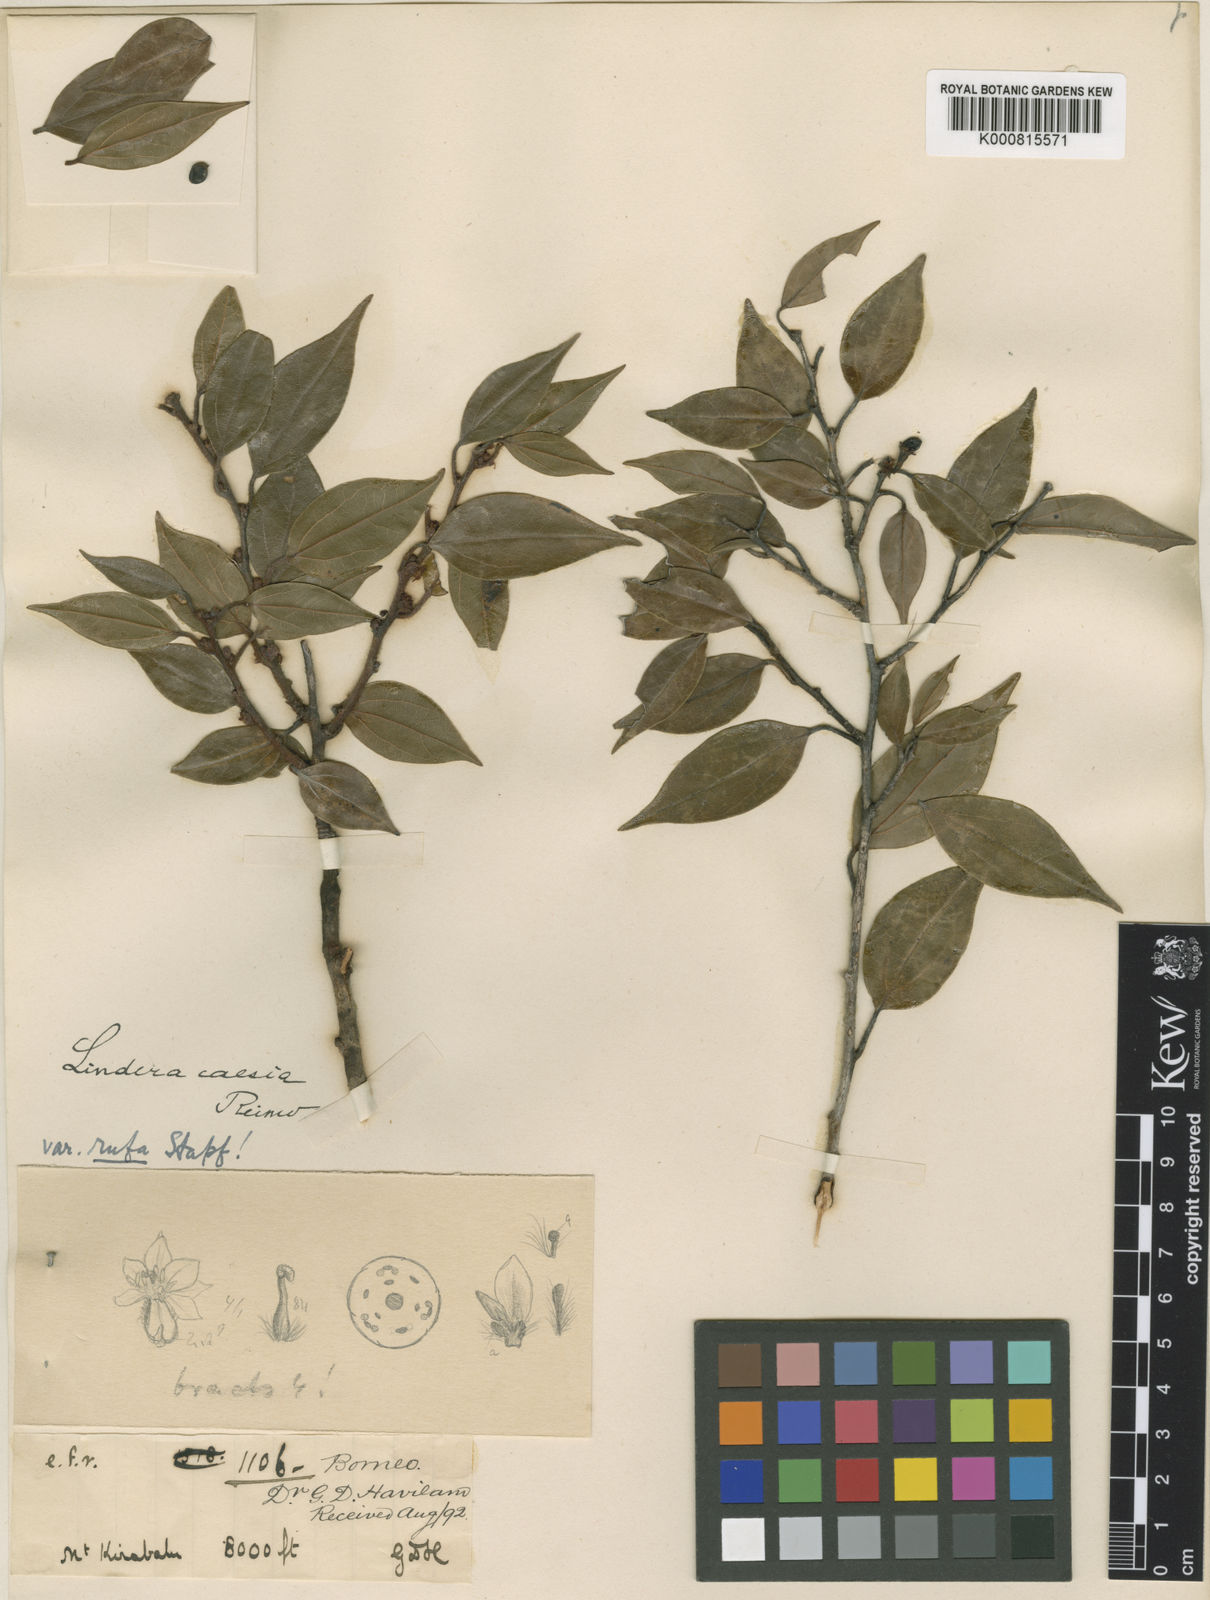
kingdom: Plantae
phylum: Tracheophyta
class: Magnoliopsida
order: Laurales
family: Lauraceae
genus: Lindera
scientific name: Lindera caesia
